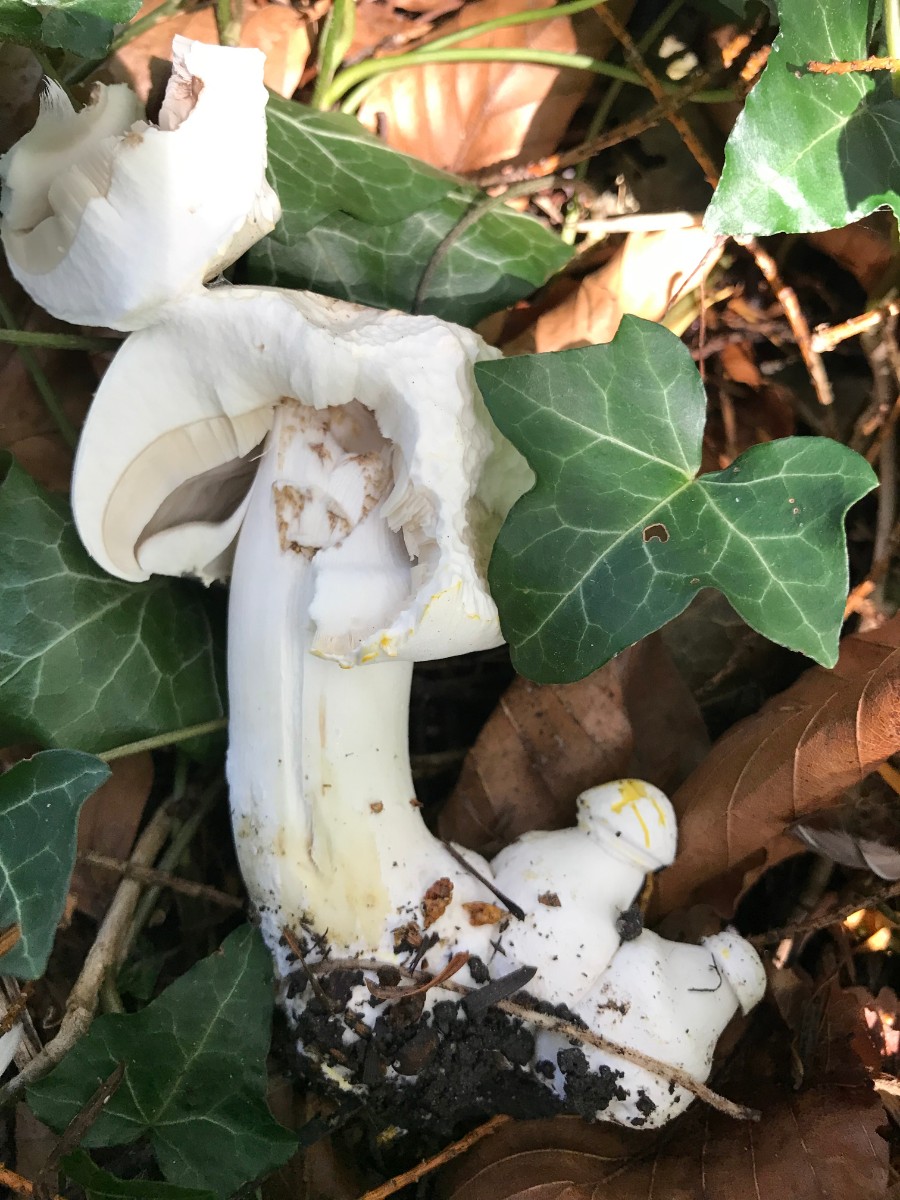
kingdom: Fungi
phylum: Basidiomycota
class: Agaricomycetes
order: Agaricales
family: Agaricaceae
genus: Agaricus
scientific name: Agaricus xanthodermus
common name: karbol-champignon
